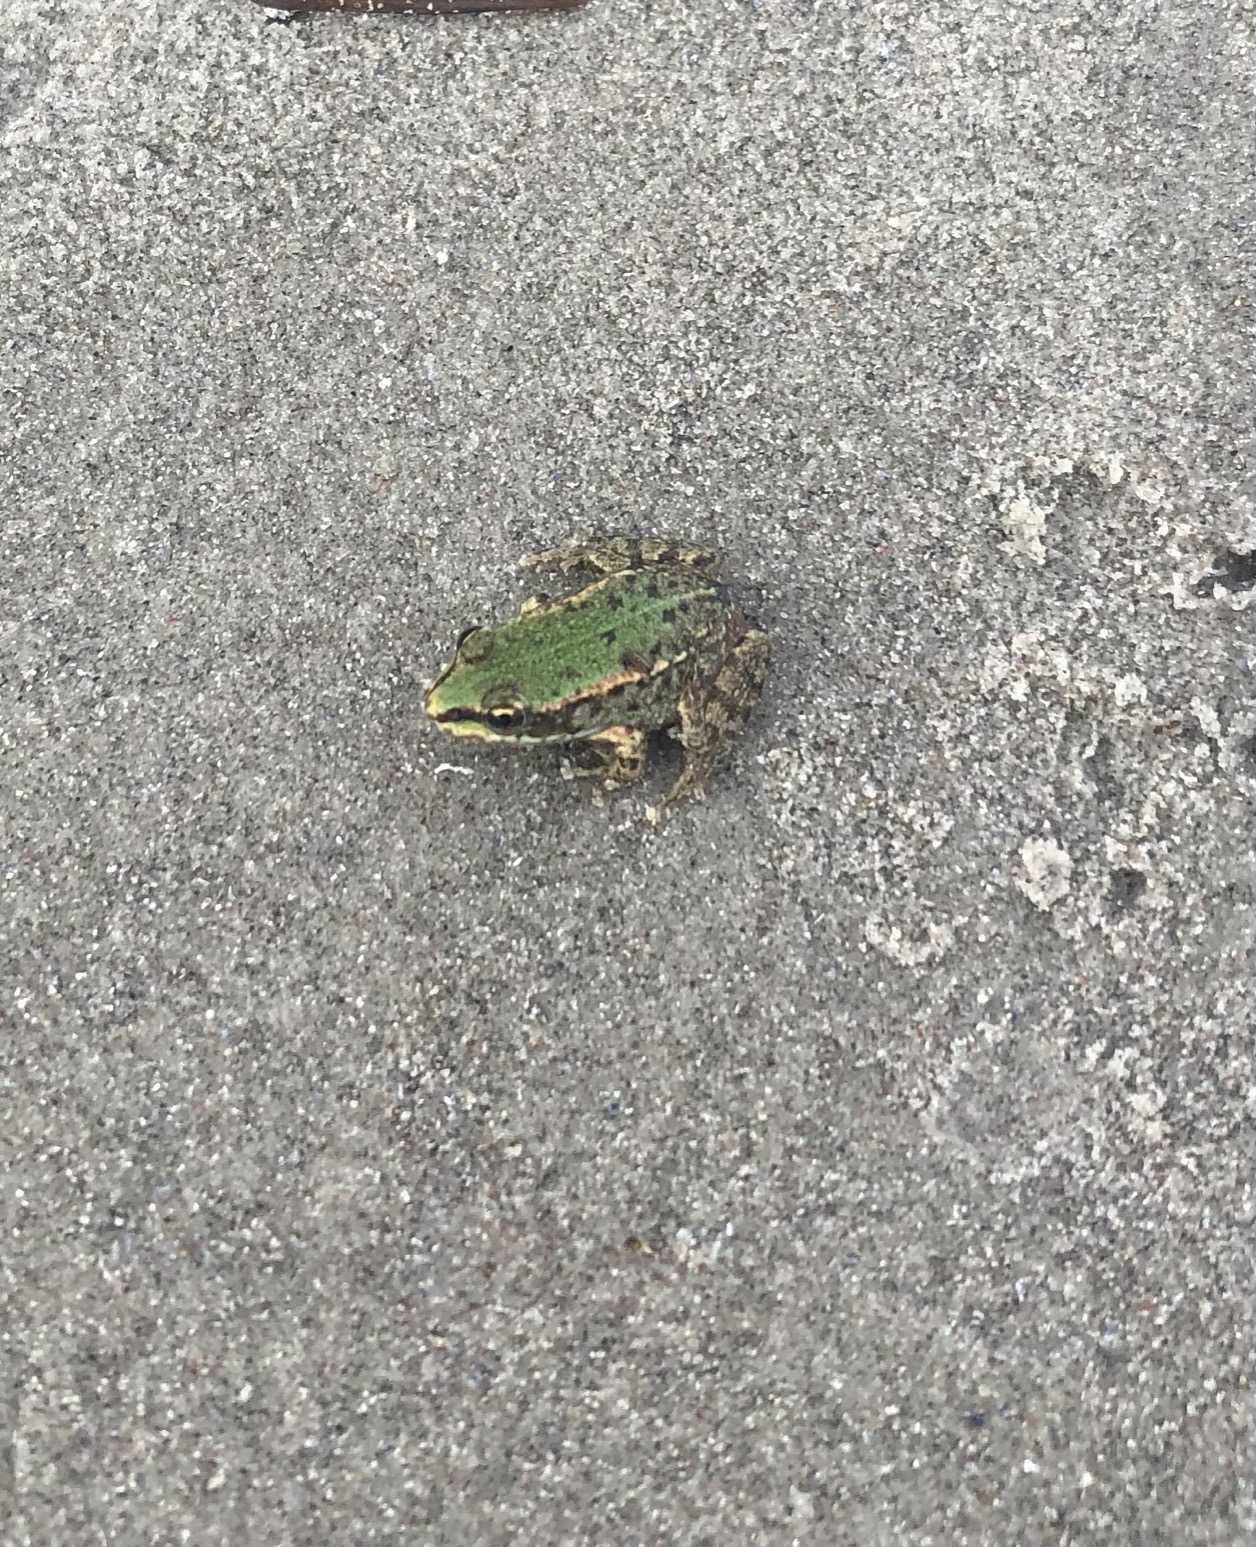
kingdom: Animalia
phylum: Chordata
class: Amphibia
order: Anura
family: Ranidae
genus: Pelophylax
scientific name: Pelophylax lessonae
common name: Grøn frø
